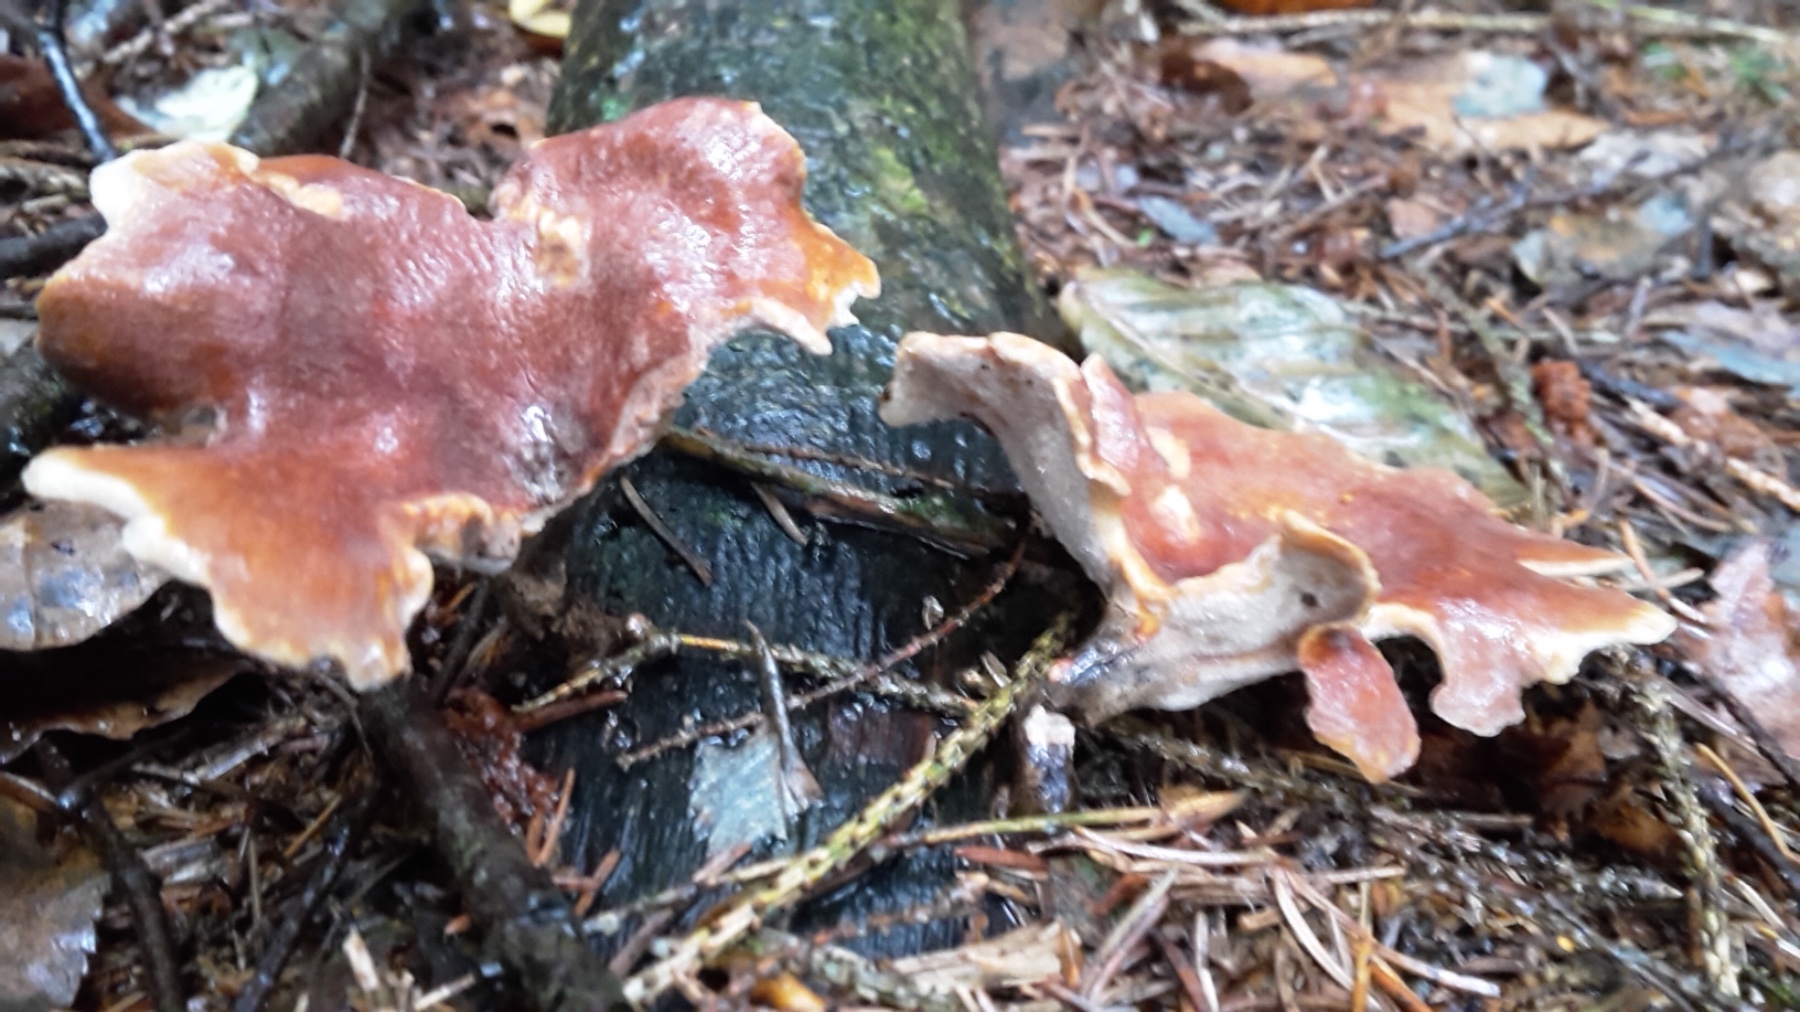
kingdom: Fungi
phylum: Basidiomycota
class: Agaricomycetes
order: Polyporales
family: Polyporaceae
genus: Picipes
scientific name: Picipes badius
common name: kastaniebrun stilkporesvamp
